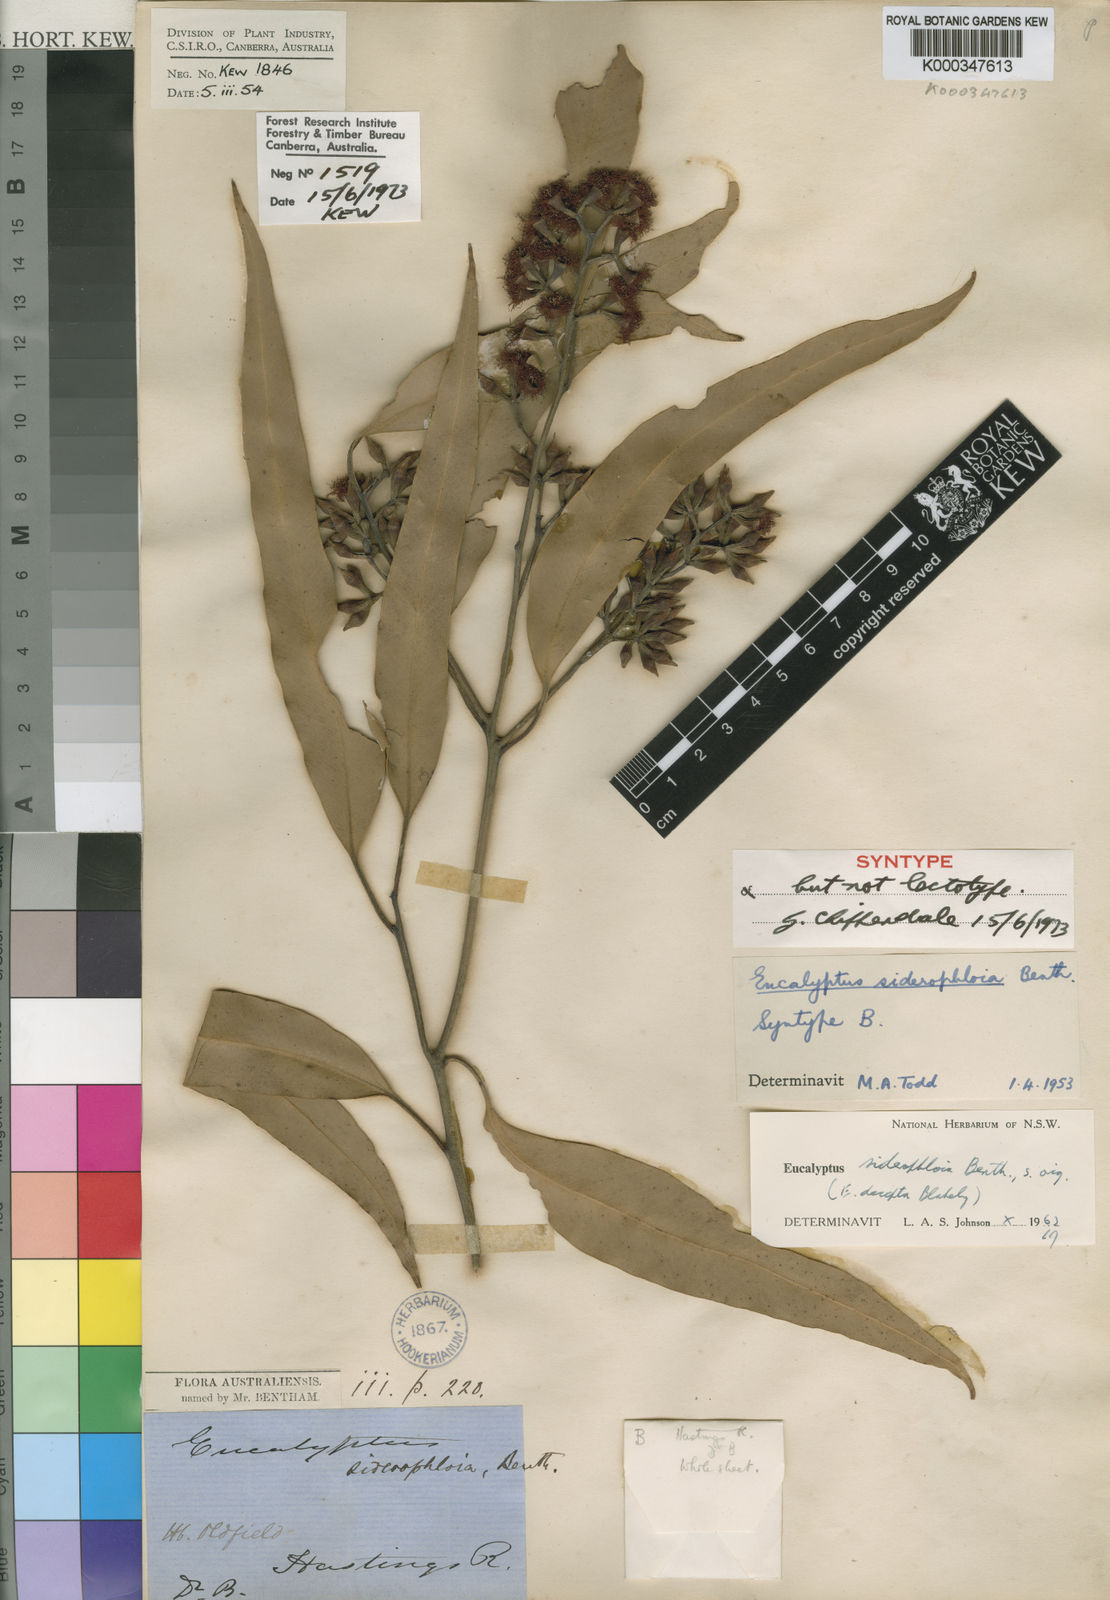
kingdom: Plantae
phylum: Tracheophyta
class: Magnoliopsida
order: Myrtales
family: Myrtaceae
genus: Eucalyptus
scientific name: Eucalyptus siderophloia
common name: Broad-leafed-ironbark
